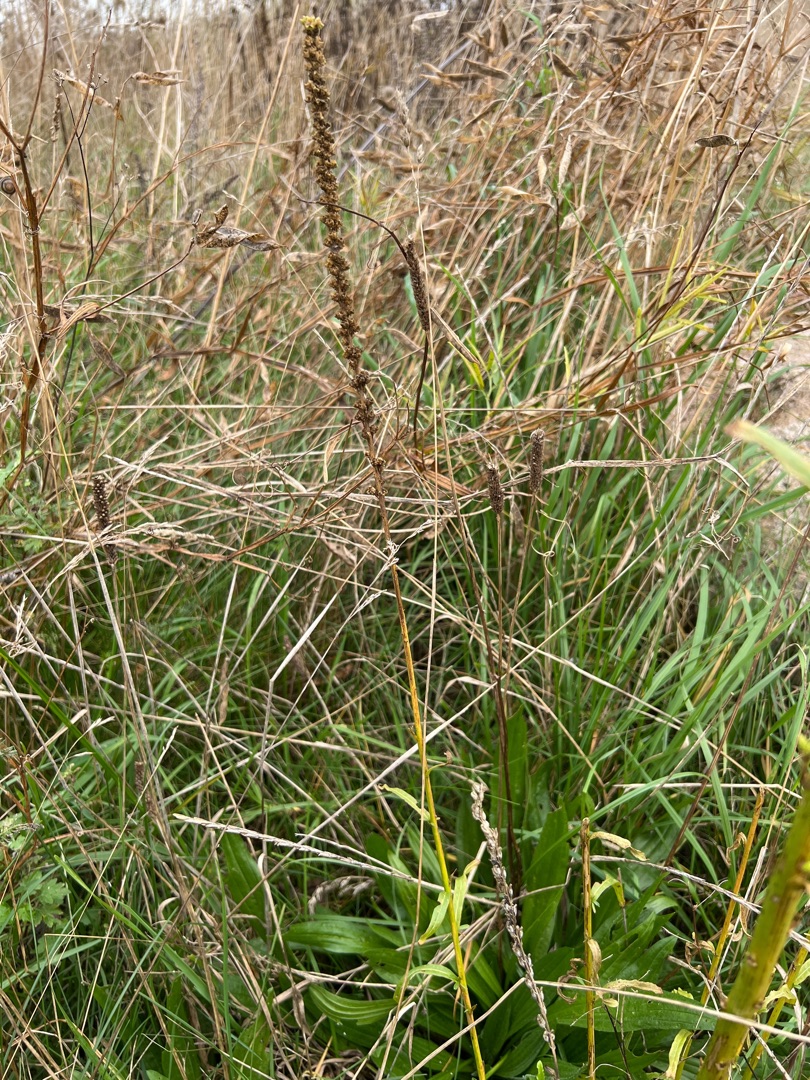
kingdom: Plantae
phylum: Tracheophyta
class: Magnoliopsida
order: Brassicales
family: Resedaceae
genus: Reseda
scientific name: Reseda luteola
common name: Farve-reseda
